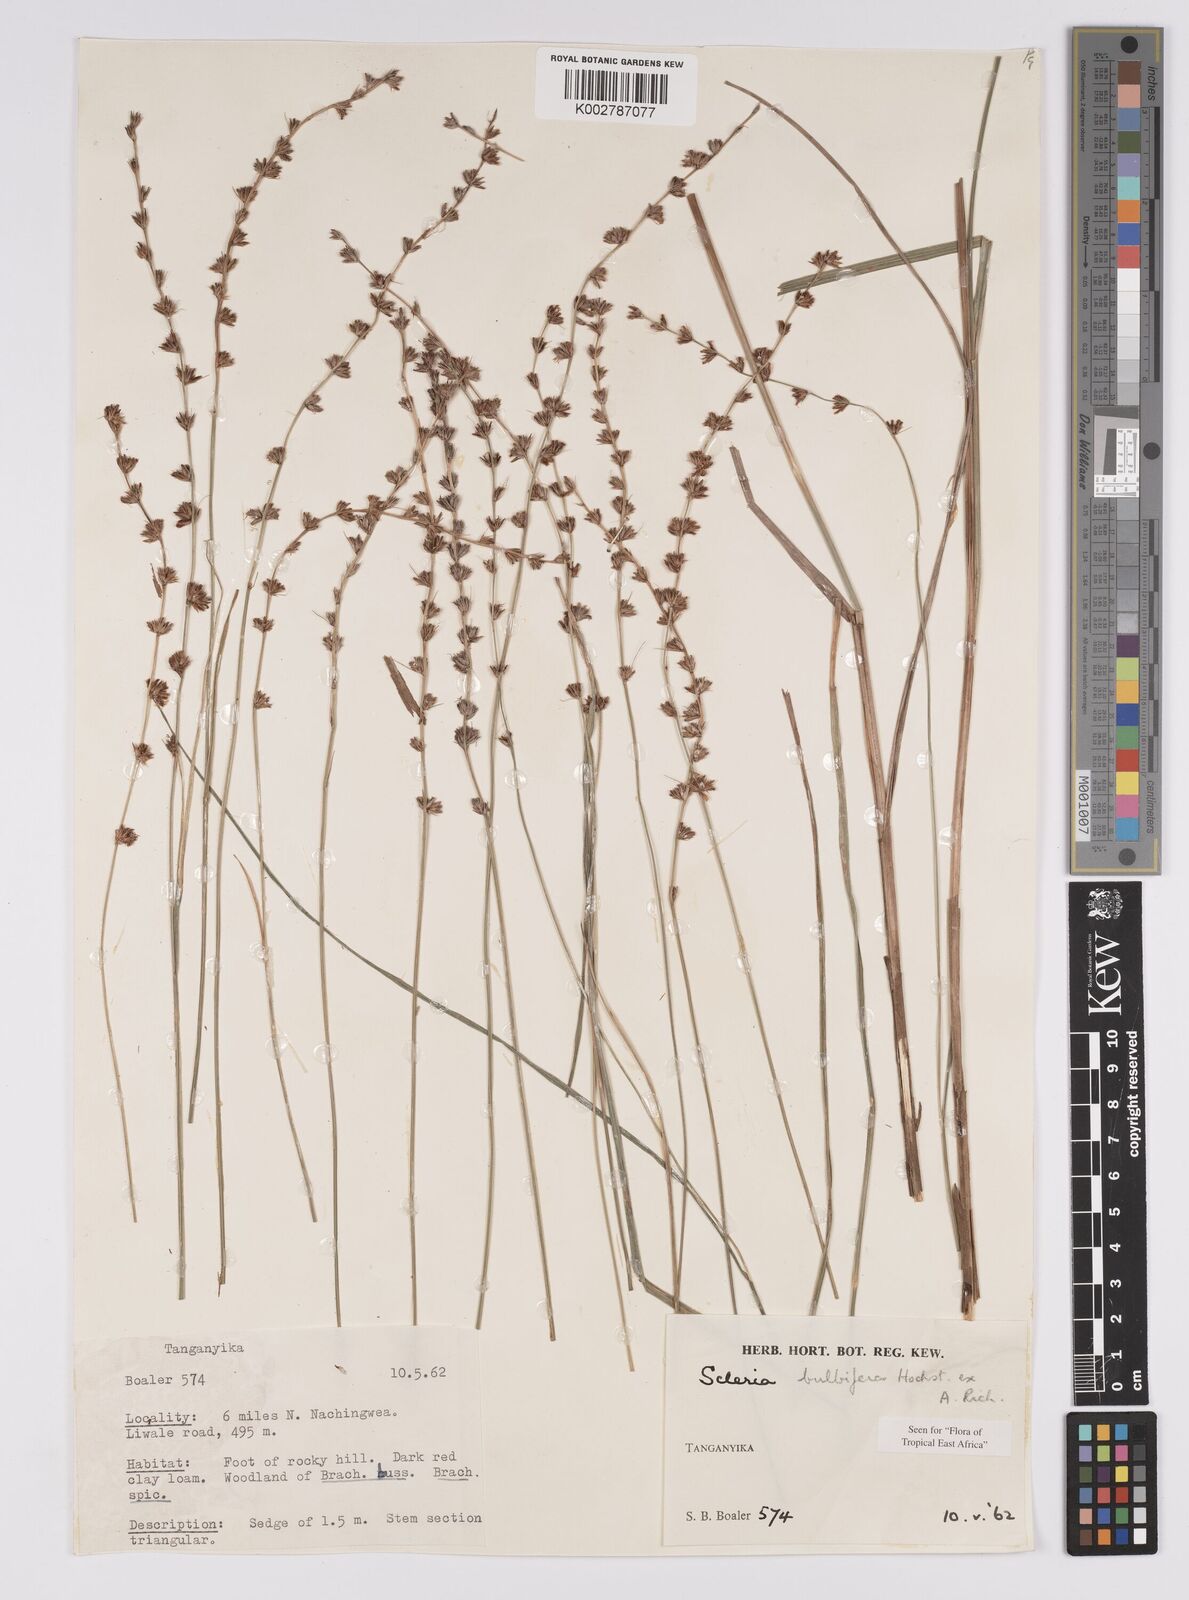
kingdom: Plantae
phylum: Tracheophyta
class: Liliopsida
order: Poales
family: Cyperaceae
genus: Scleria
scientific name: Scleria bulbifera
